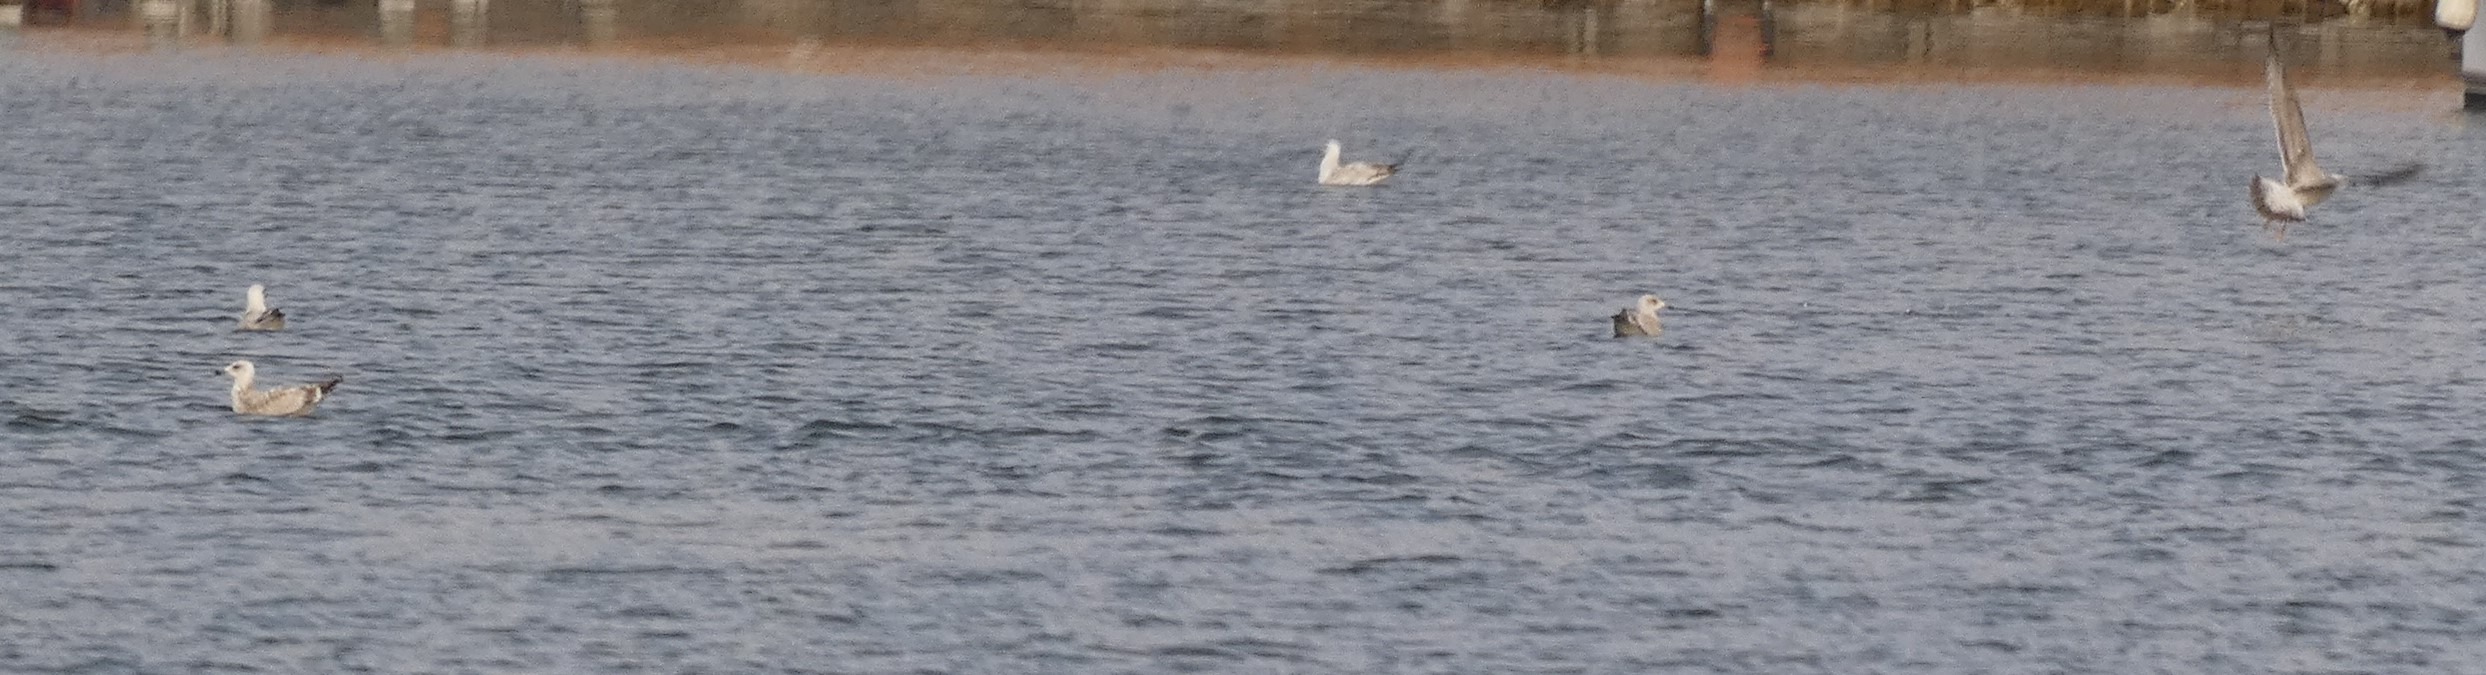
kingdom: Animalia
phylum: Chordata
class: Aves
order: Charadriiformes
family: Laridae
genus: Larus
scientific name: Larus argentatus
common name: Sølvmåge
